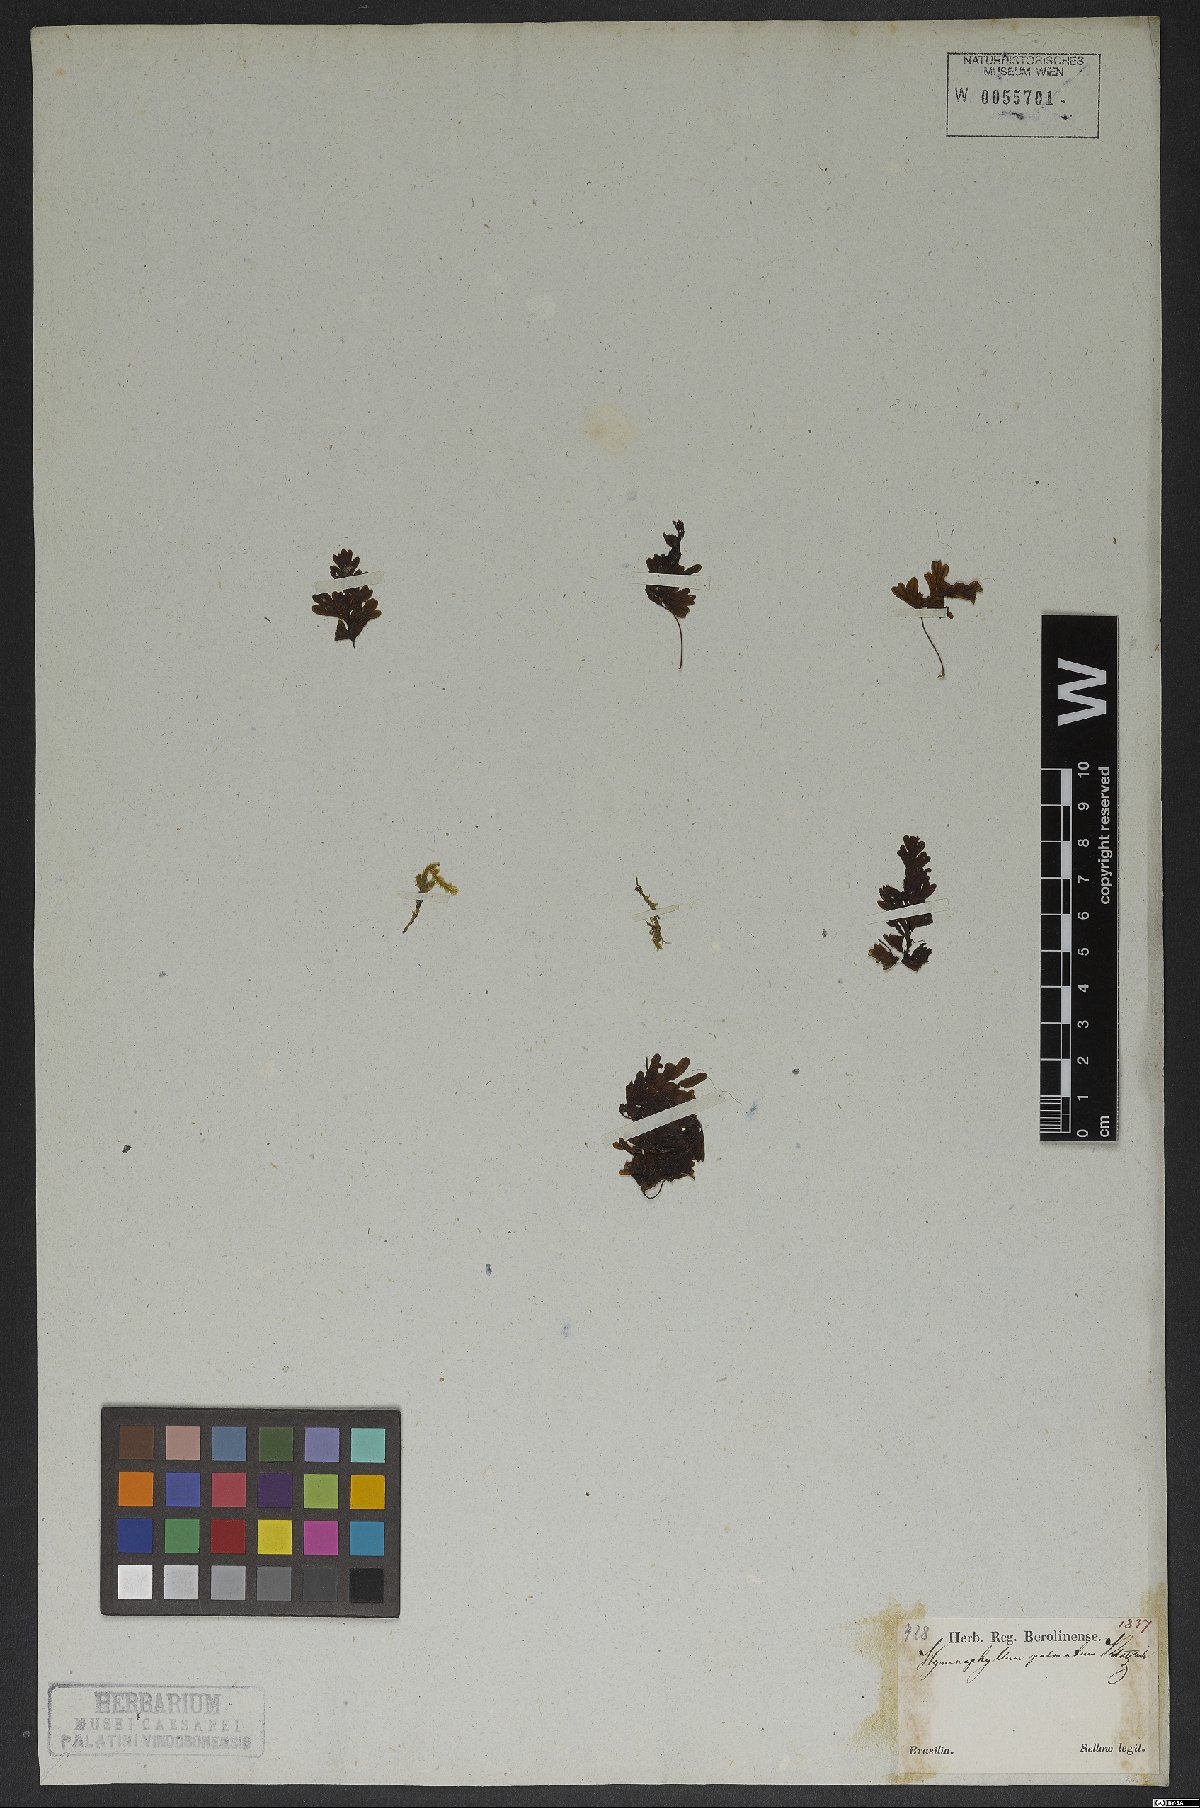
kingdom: Plantae
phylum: Tracheophyta
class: Polypodiopsida
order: Hymenophyllales
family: Hymenophyllaceae
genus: Hymenophyllum
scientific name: Hymenophyllum asplenioides
